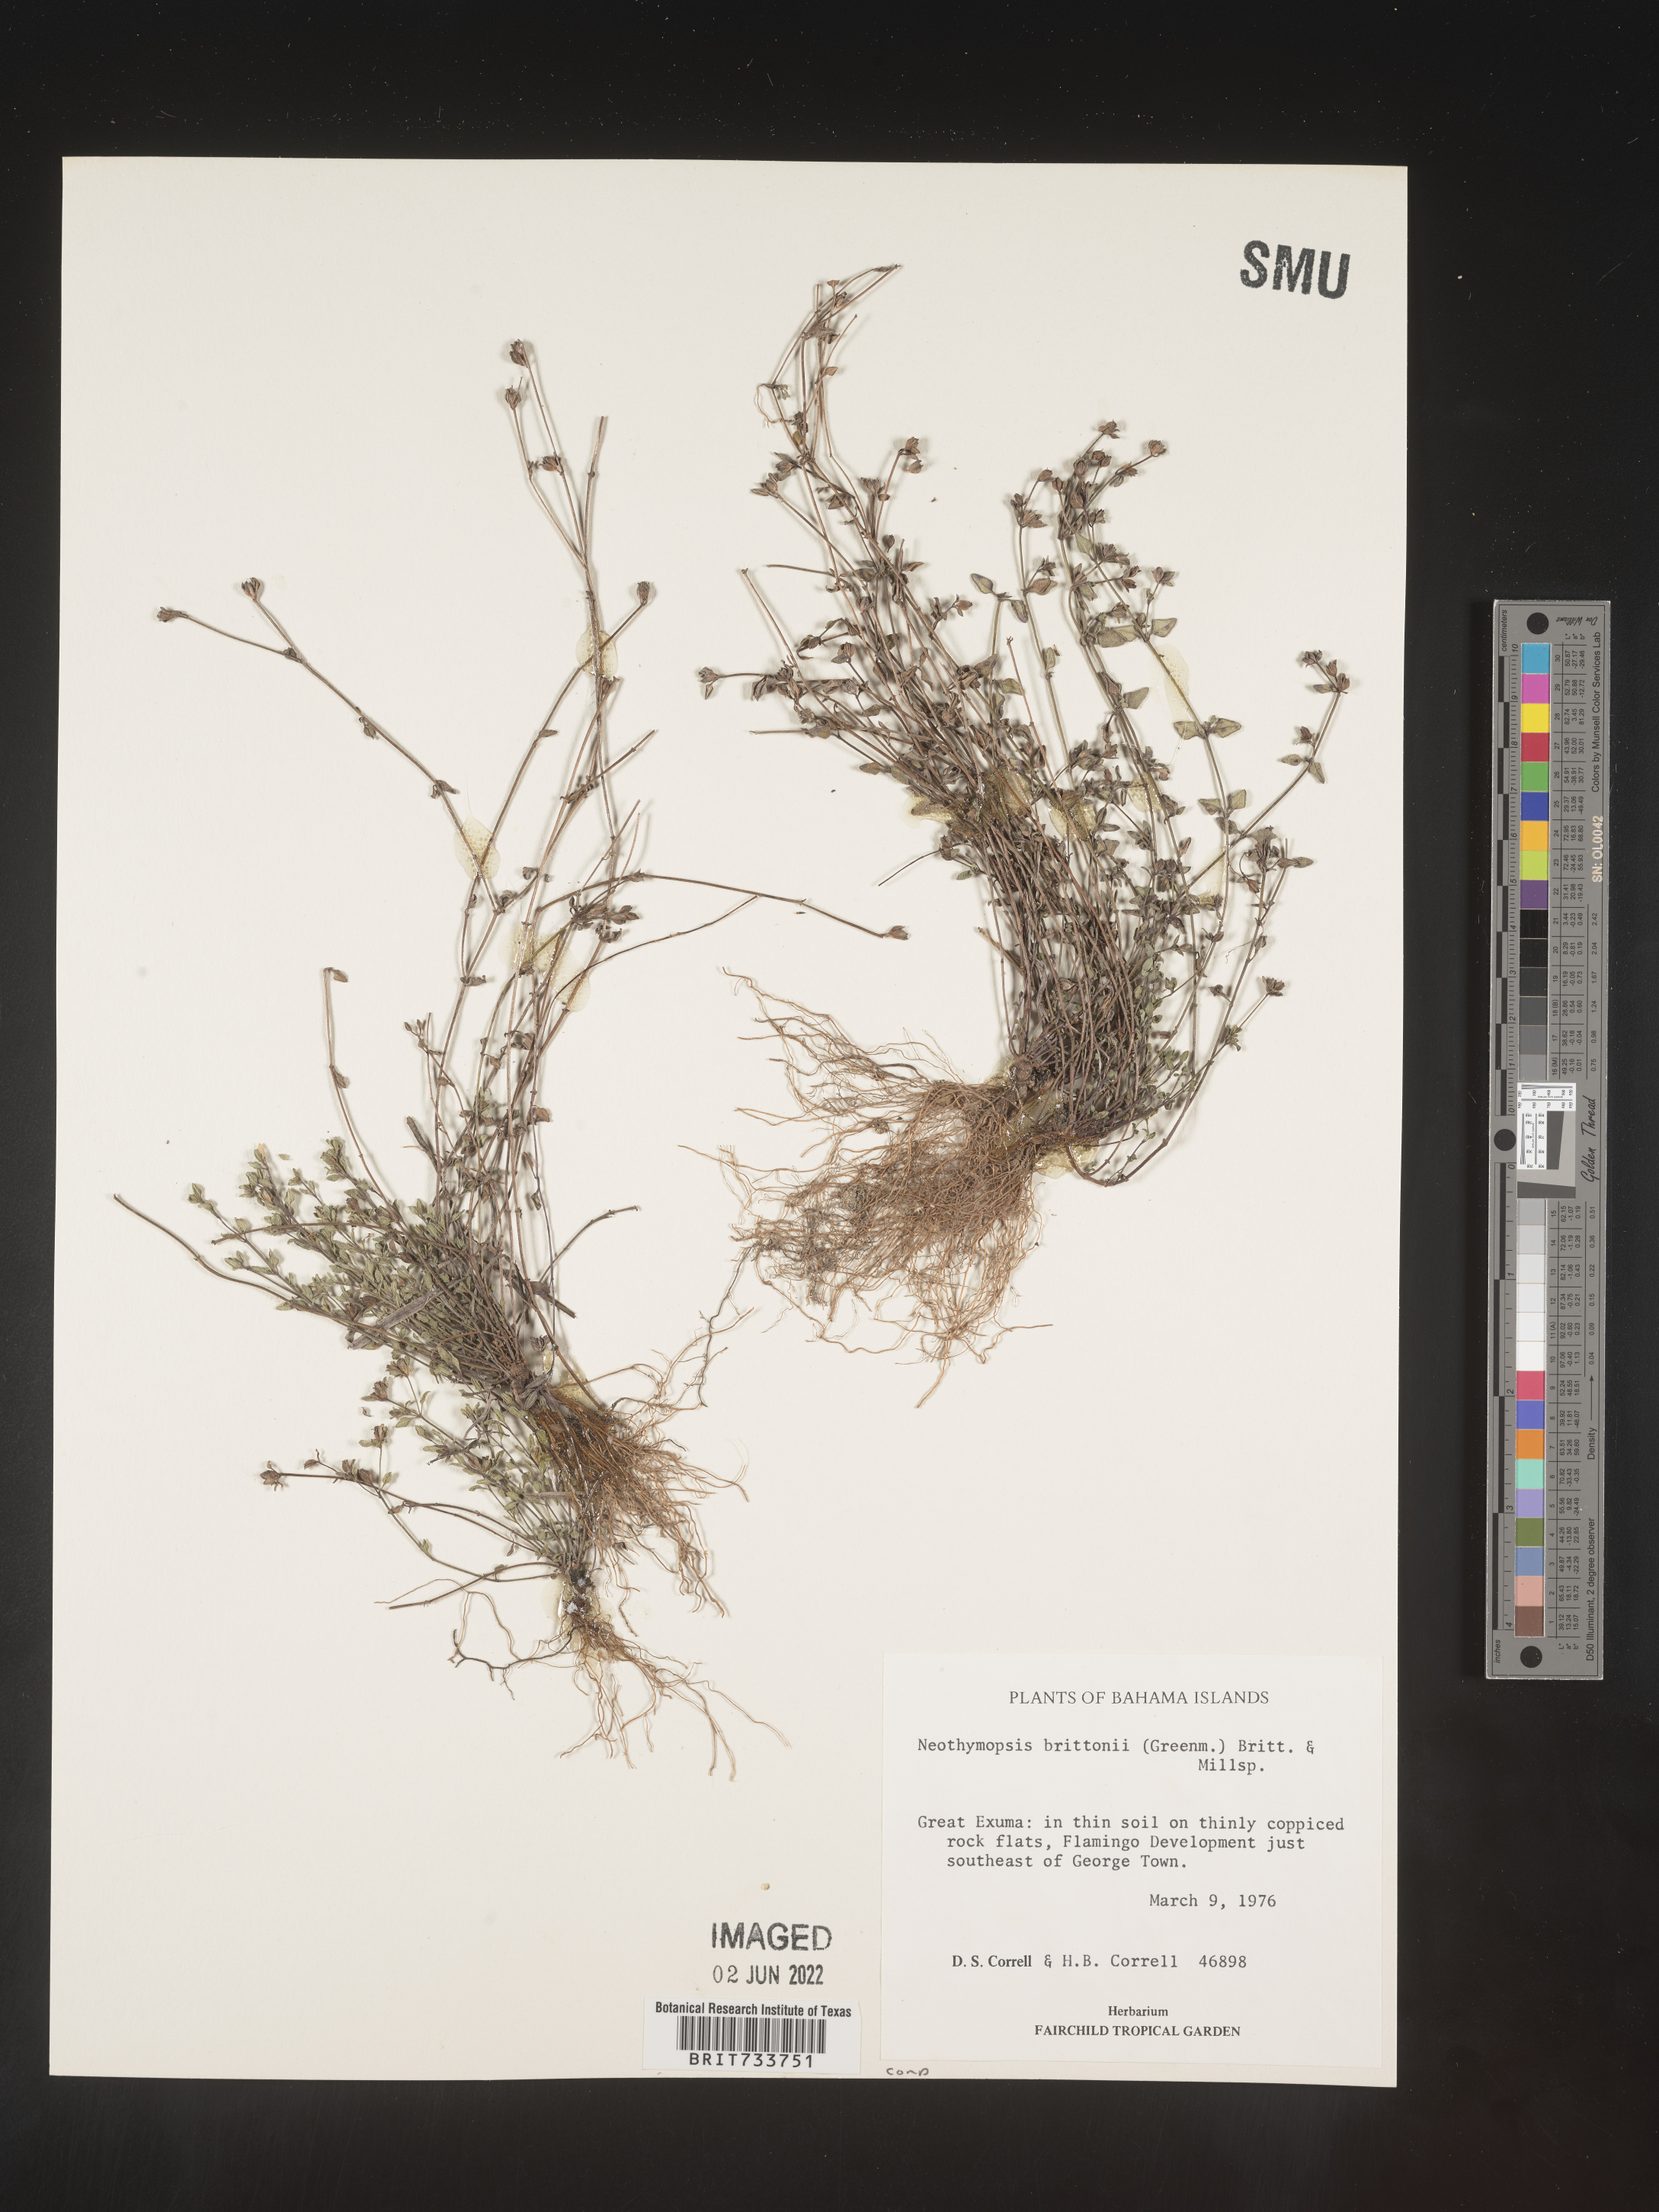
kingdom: Plantae
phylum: Tracheophyta
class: Magnoliopsida
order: Asterales
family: Asteraceae
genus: Thymopsis
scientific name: Thymopsis brittonii
